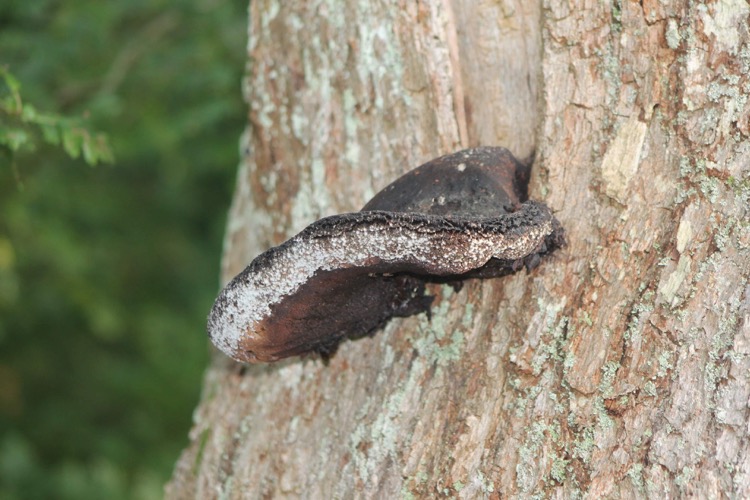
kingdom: Fungi
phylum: Basidiomycota
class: Agaricomycetes
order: Agaricales
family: Fistulinaceae
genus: Fistulina
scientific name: Fistulina hepatica
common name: oksetunge
